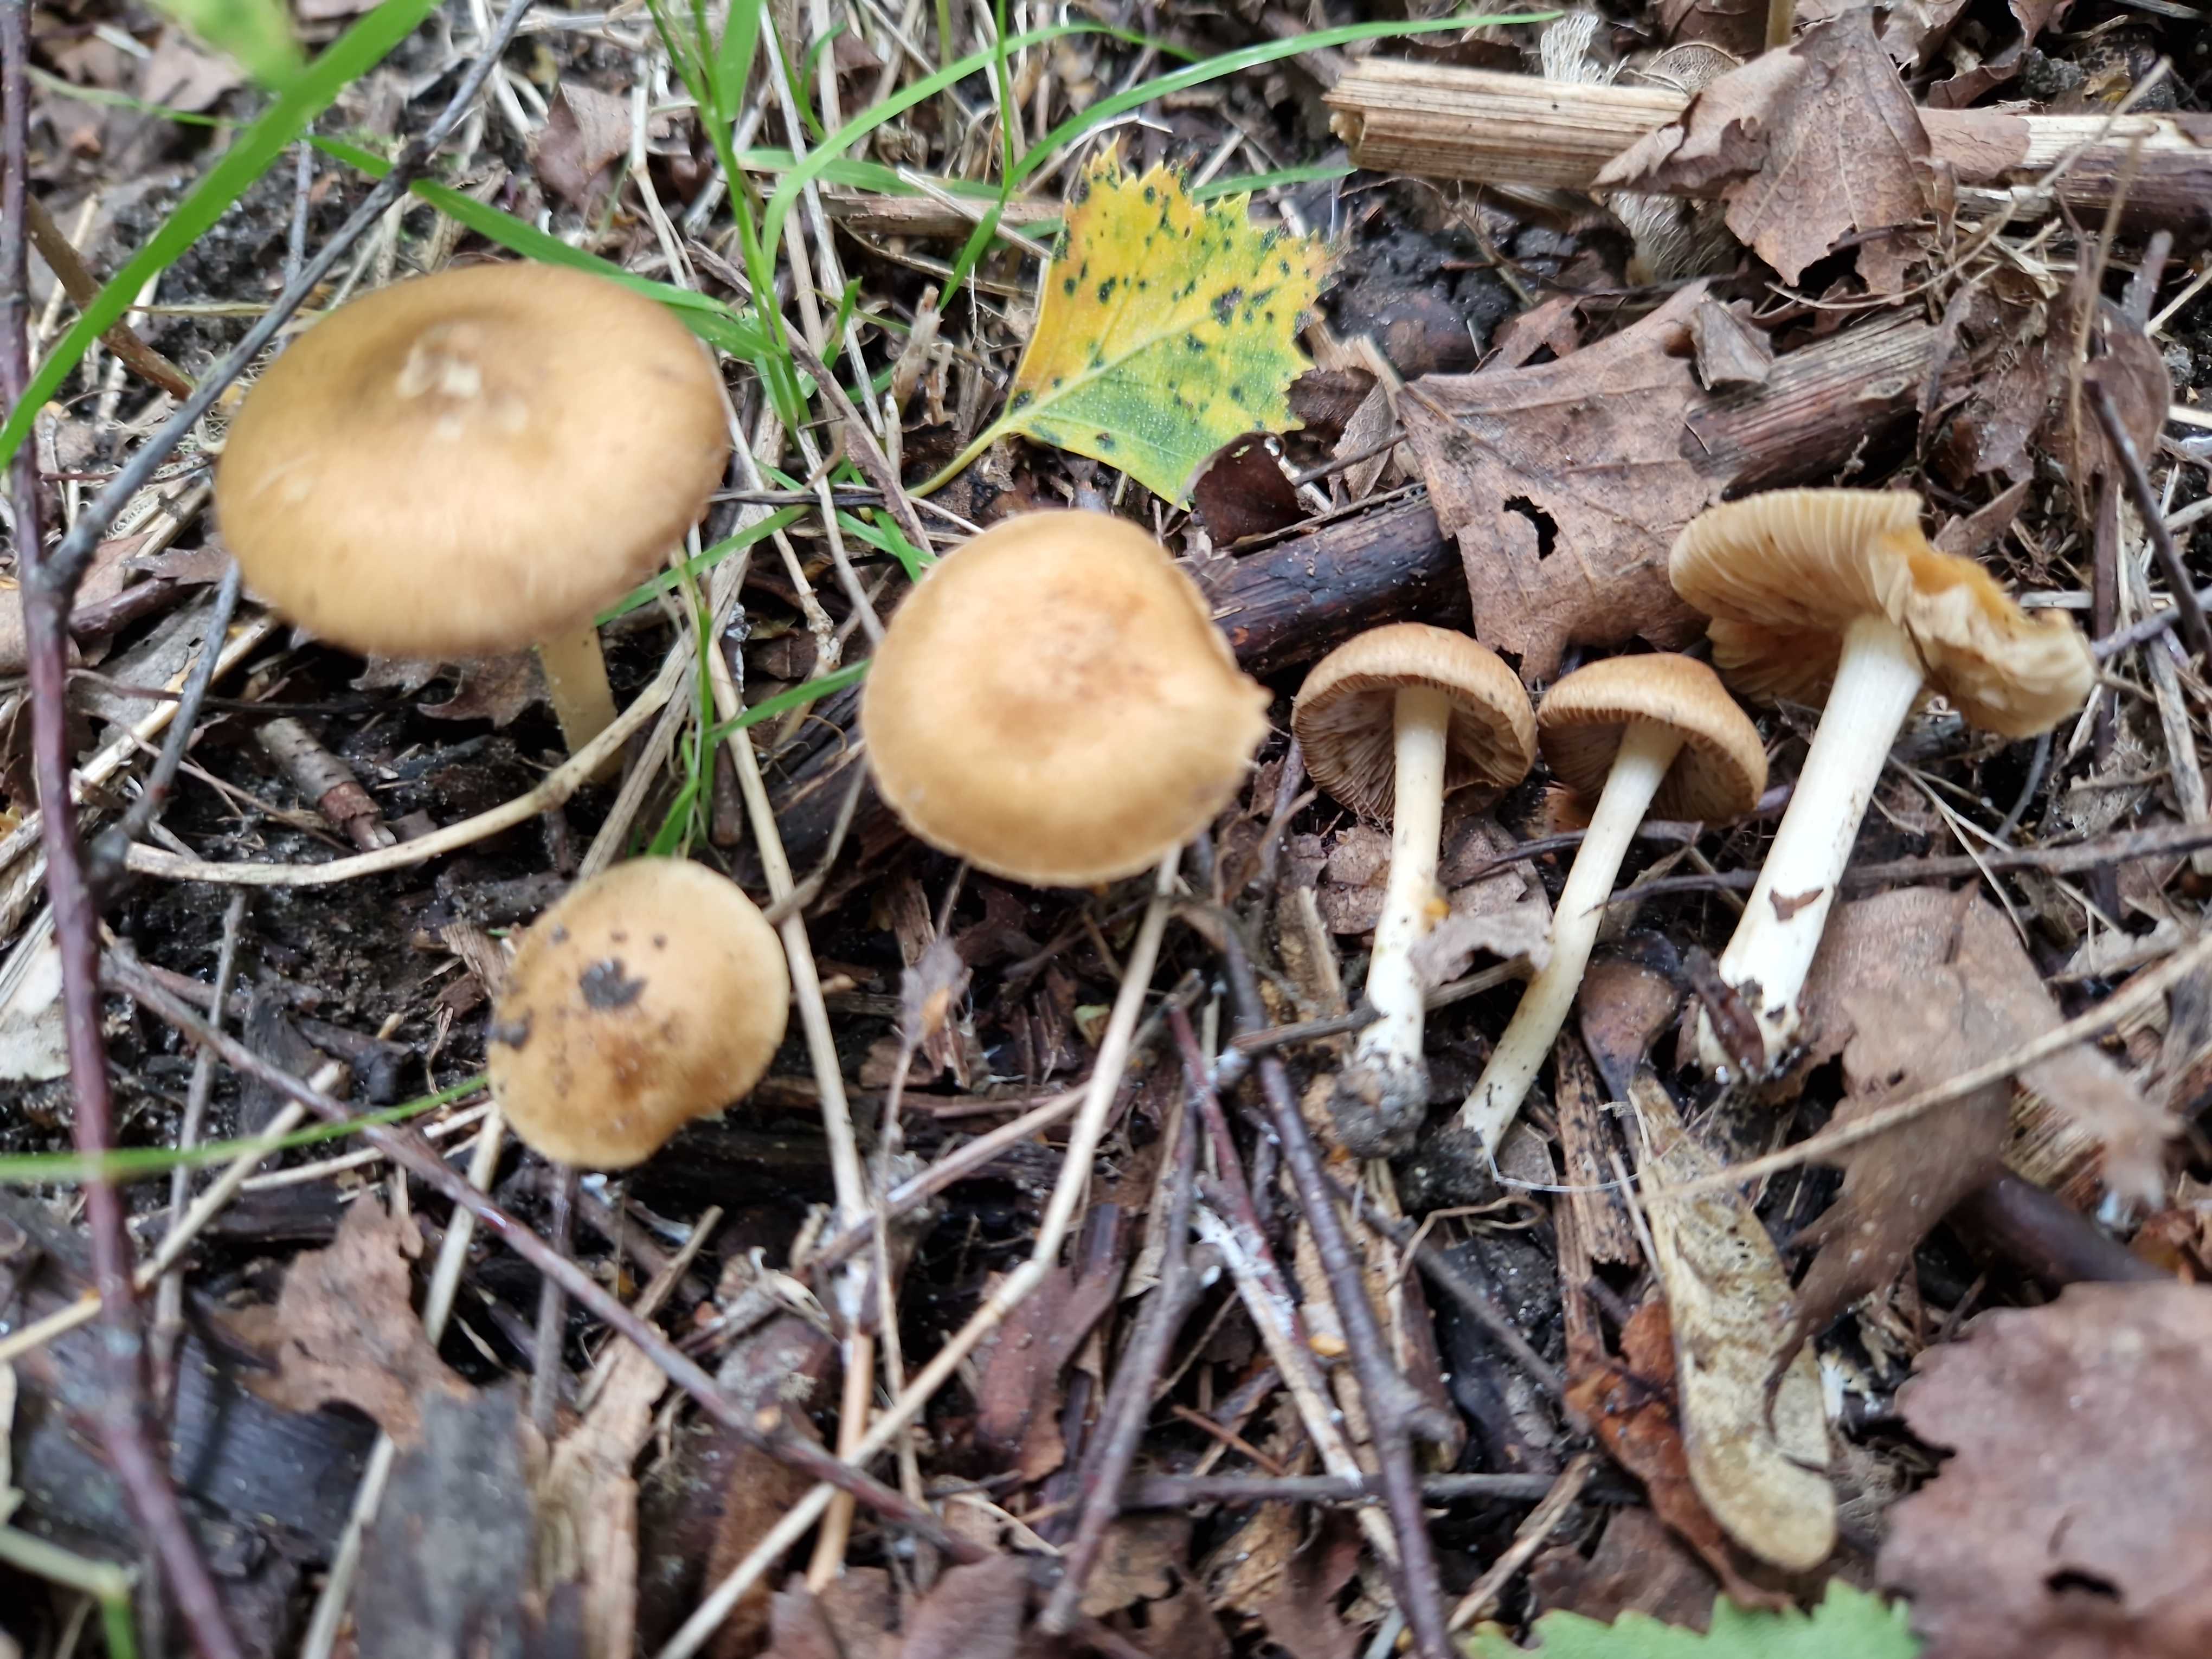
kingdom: Fungi
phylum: Basidiomycota
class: Agaricomycetes
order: Agaricales
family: Inocybaceae
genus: Inocybe
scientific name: Inocybe
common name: trævlhat
